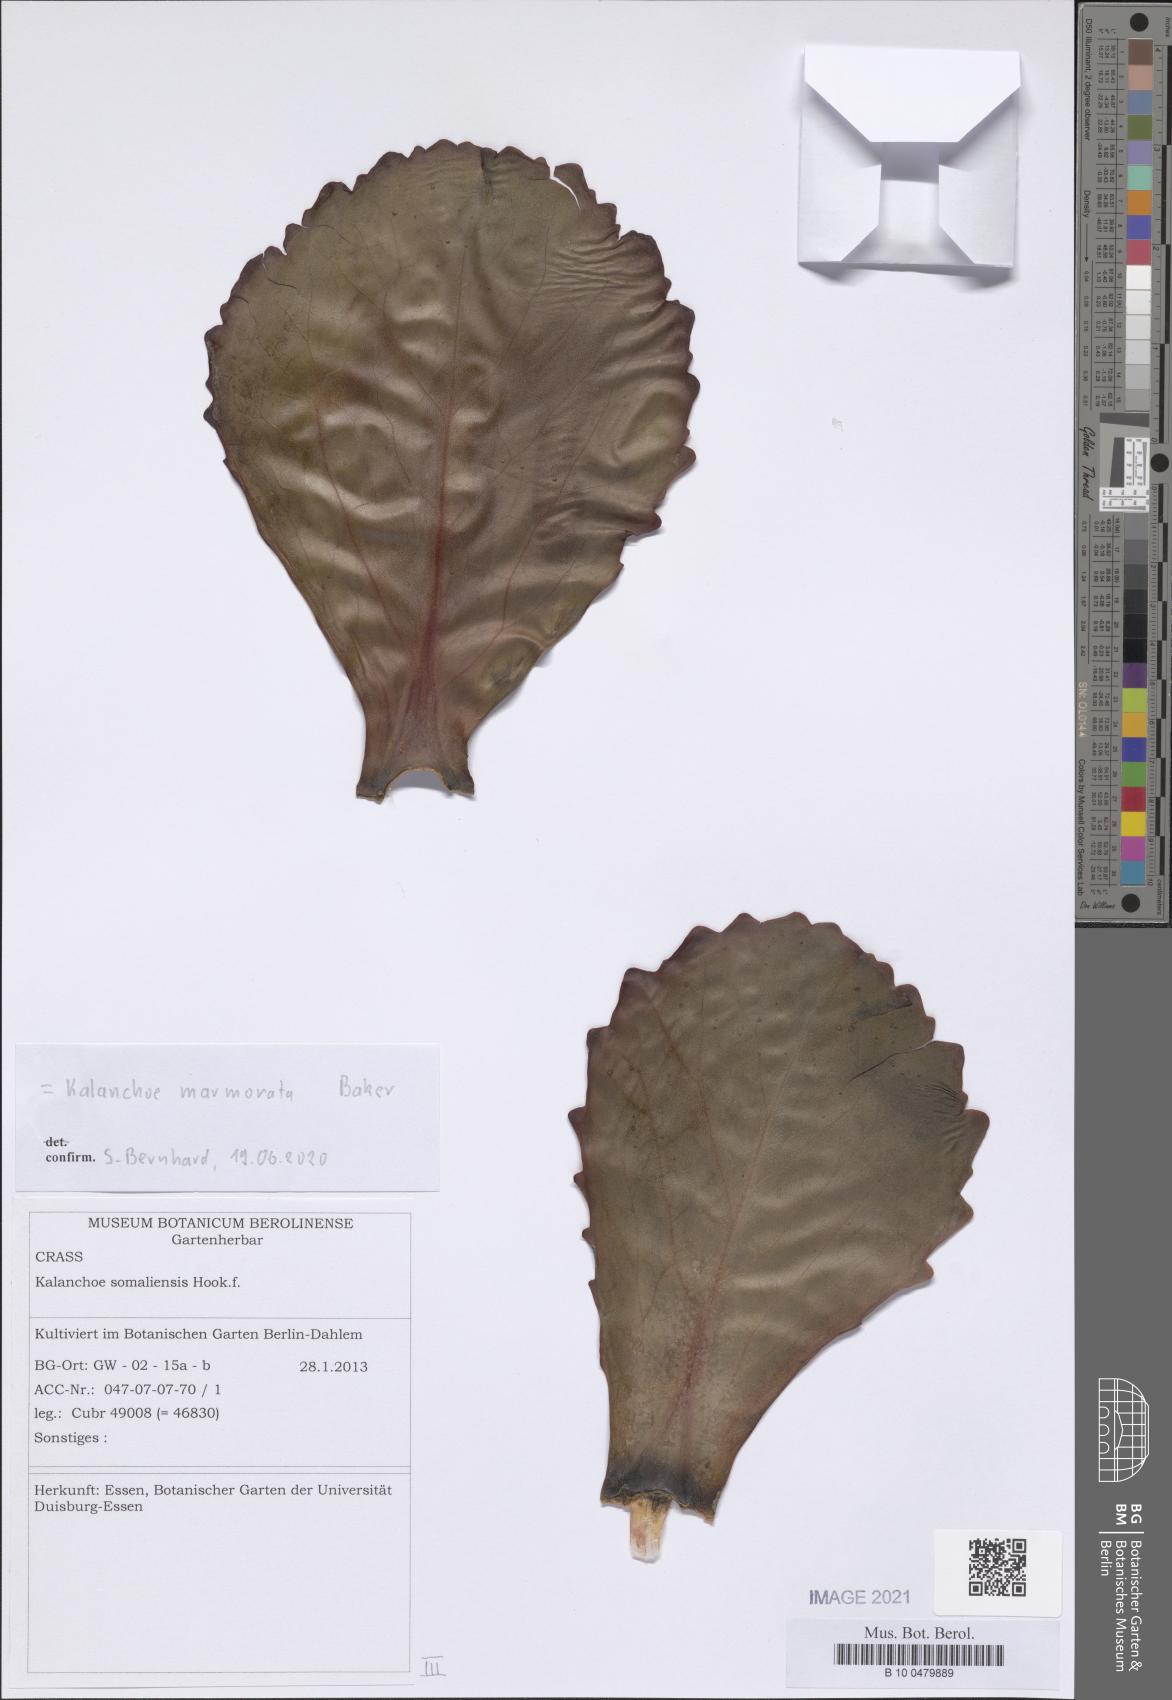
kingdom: Plantae
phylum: Tracheophyta
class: Magnoliopsida
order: Saxifragales
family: Crassulaceae
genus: Kalanchoe
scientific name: Kalanchoe marmorata
